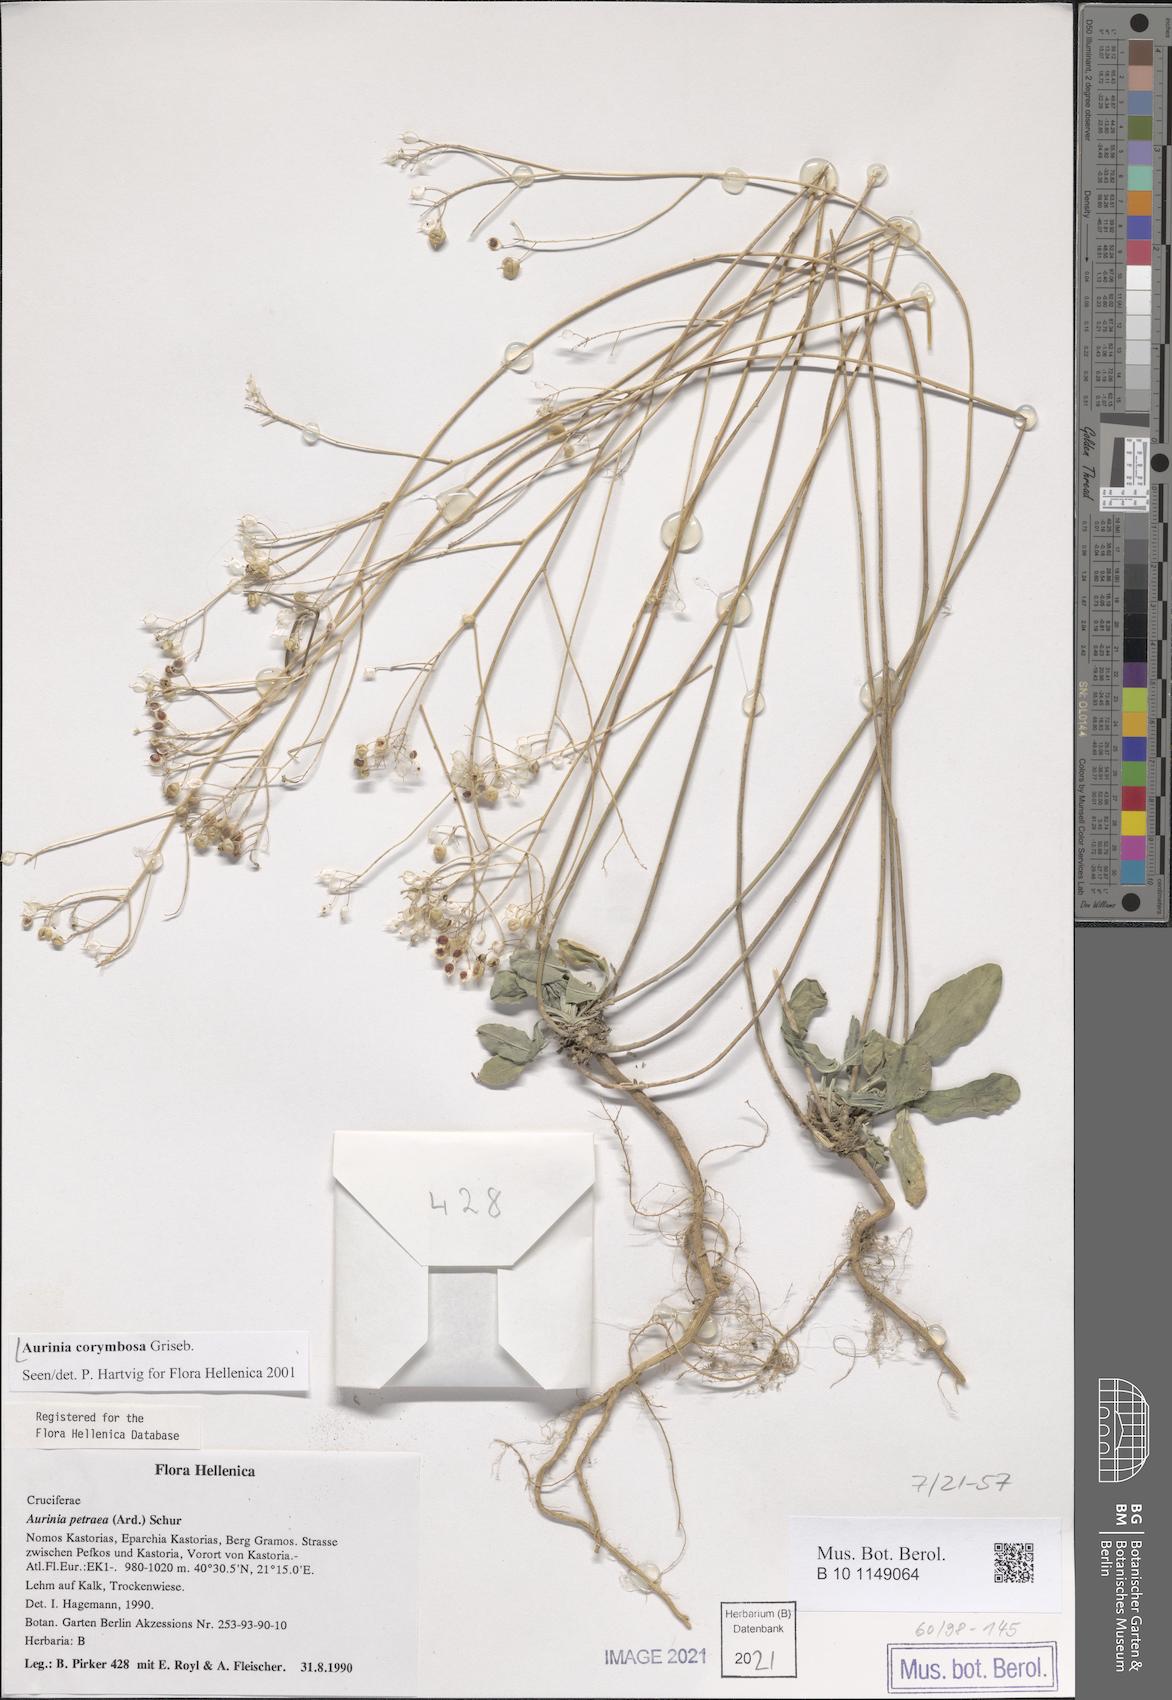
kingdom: Plantae
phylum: Tracheophyta
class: Magnoliopsida
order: Brassicales
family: Brassicaceae
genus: Aurinia
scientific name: Aurinia corymbosa
